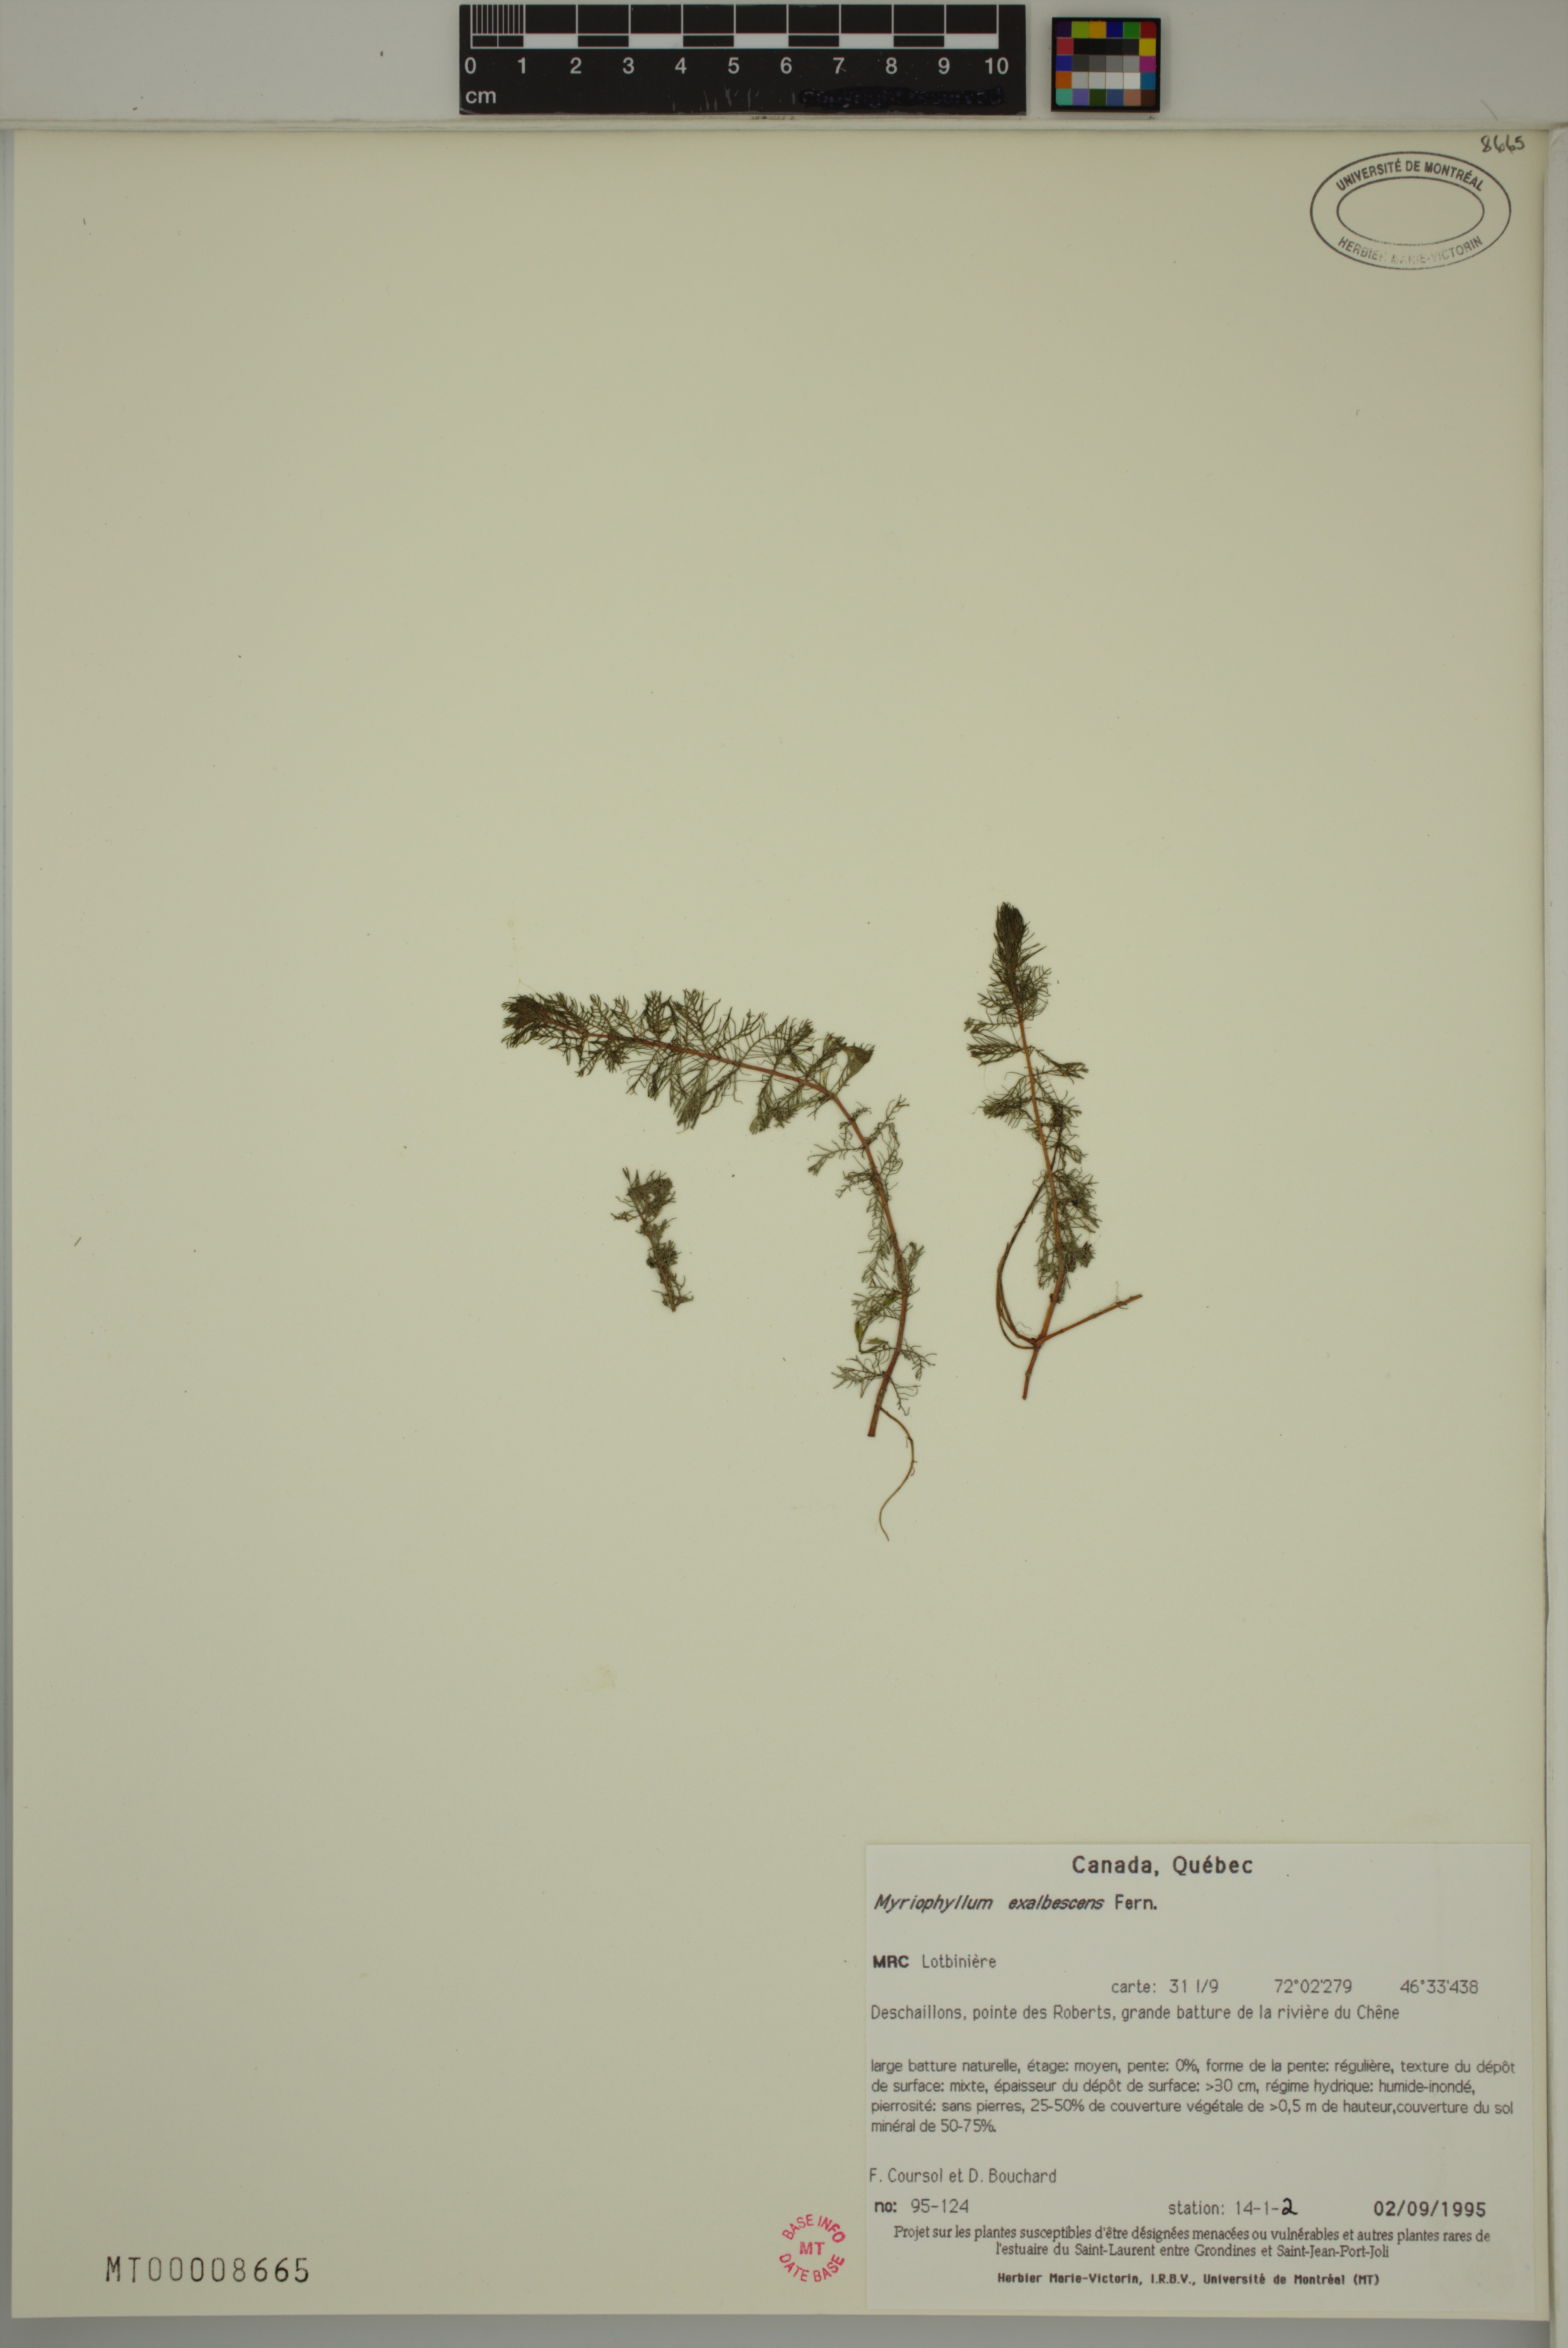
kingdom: Plantae
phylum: Tracheophyta
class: Magnoliopsida
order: Saxifragales
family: Haloragaceae
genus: Myriophyllum
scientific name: Myriophyllum sibiricum
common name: Siberian water-milfoil
